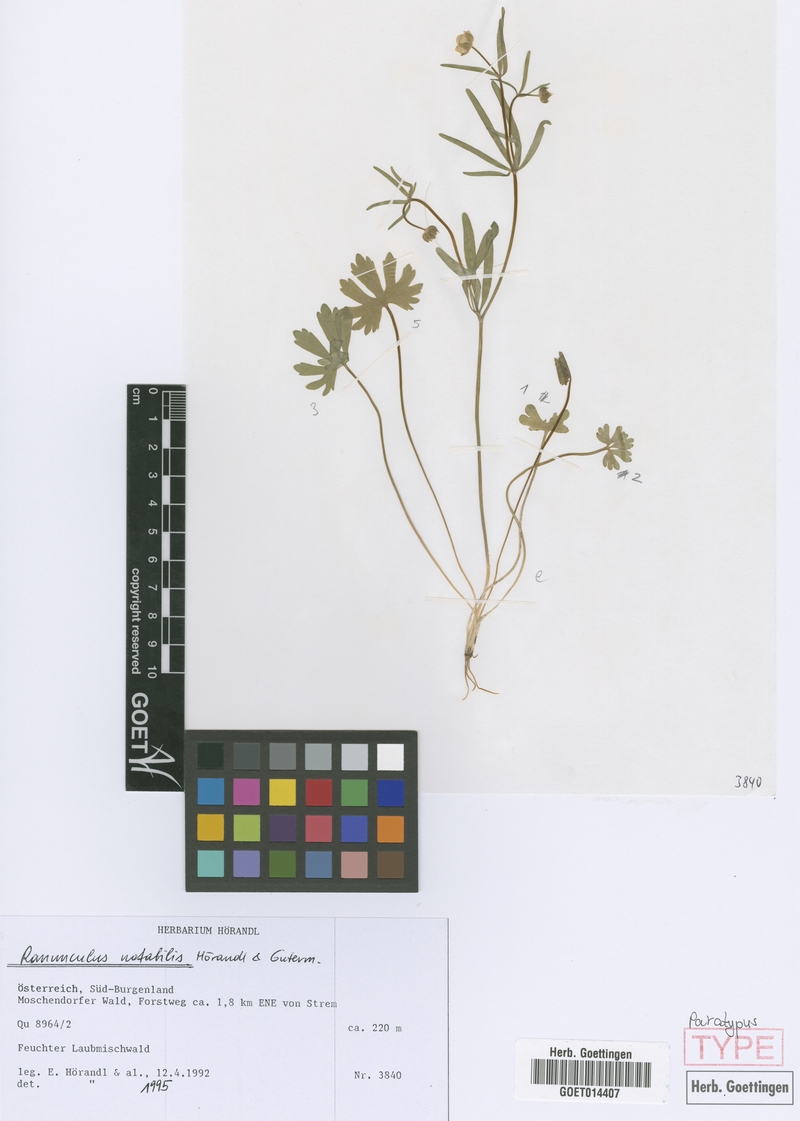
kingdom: Plantae
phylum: Tracheophyta
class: Magnoliopsida
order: Ranunculales
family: Ranunculaceae
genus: Ranunculus
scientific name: Ranunculus notabilis
